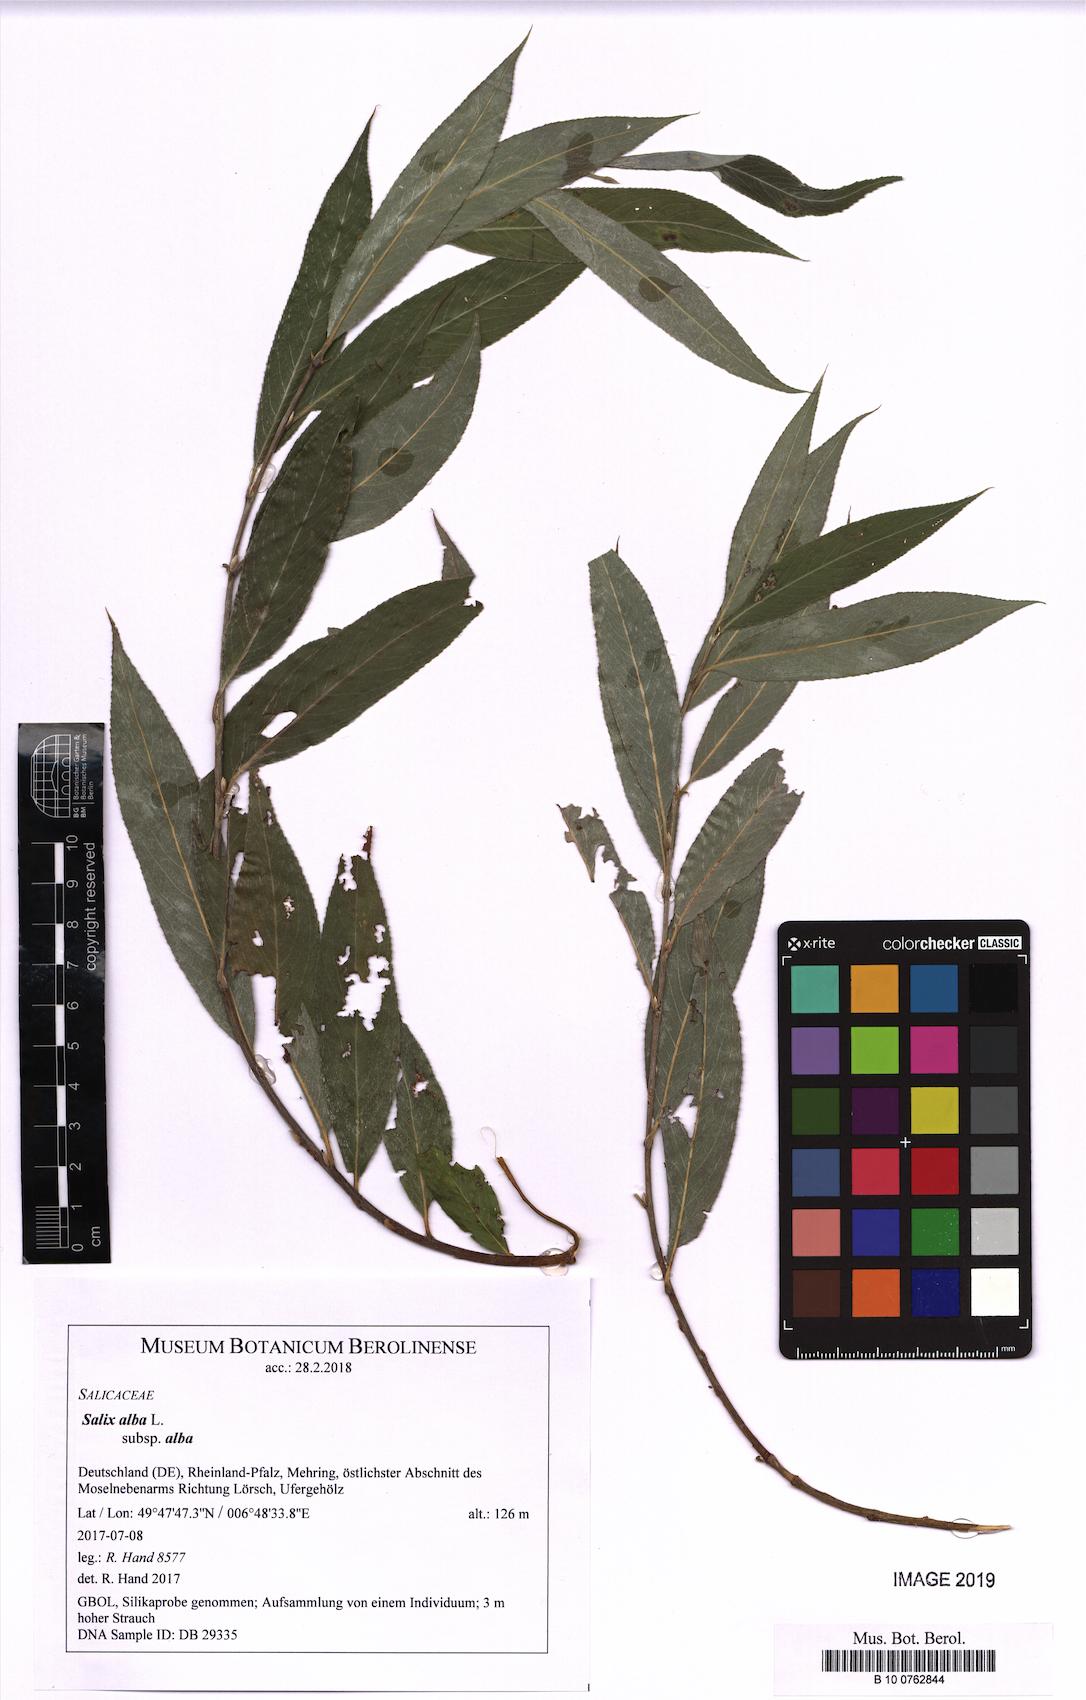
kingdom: Plantae
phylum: Tracheophyta
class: Magnoliopsida
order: Malpighiales
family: Salicaceae
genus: Salix
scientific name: Salix alba
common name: White willow
